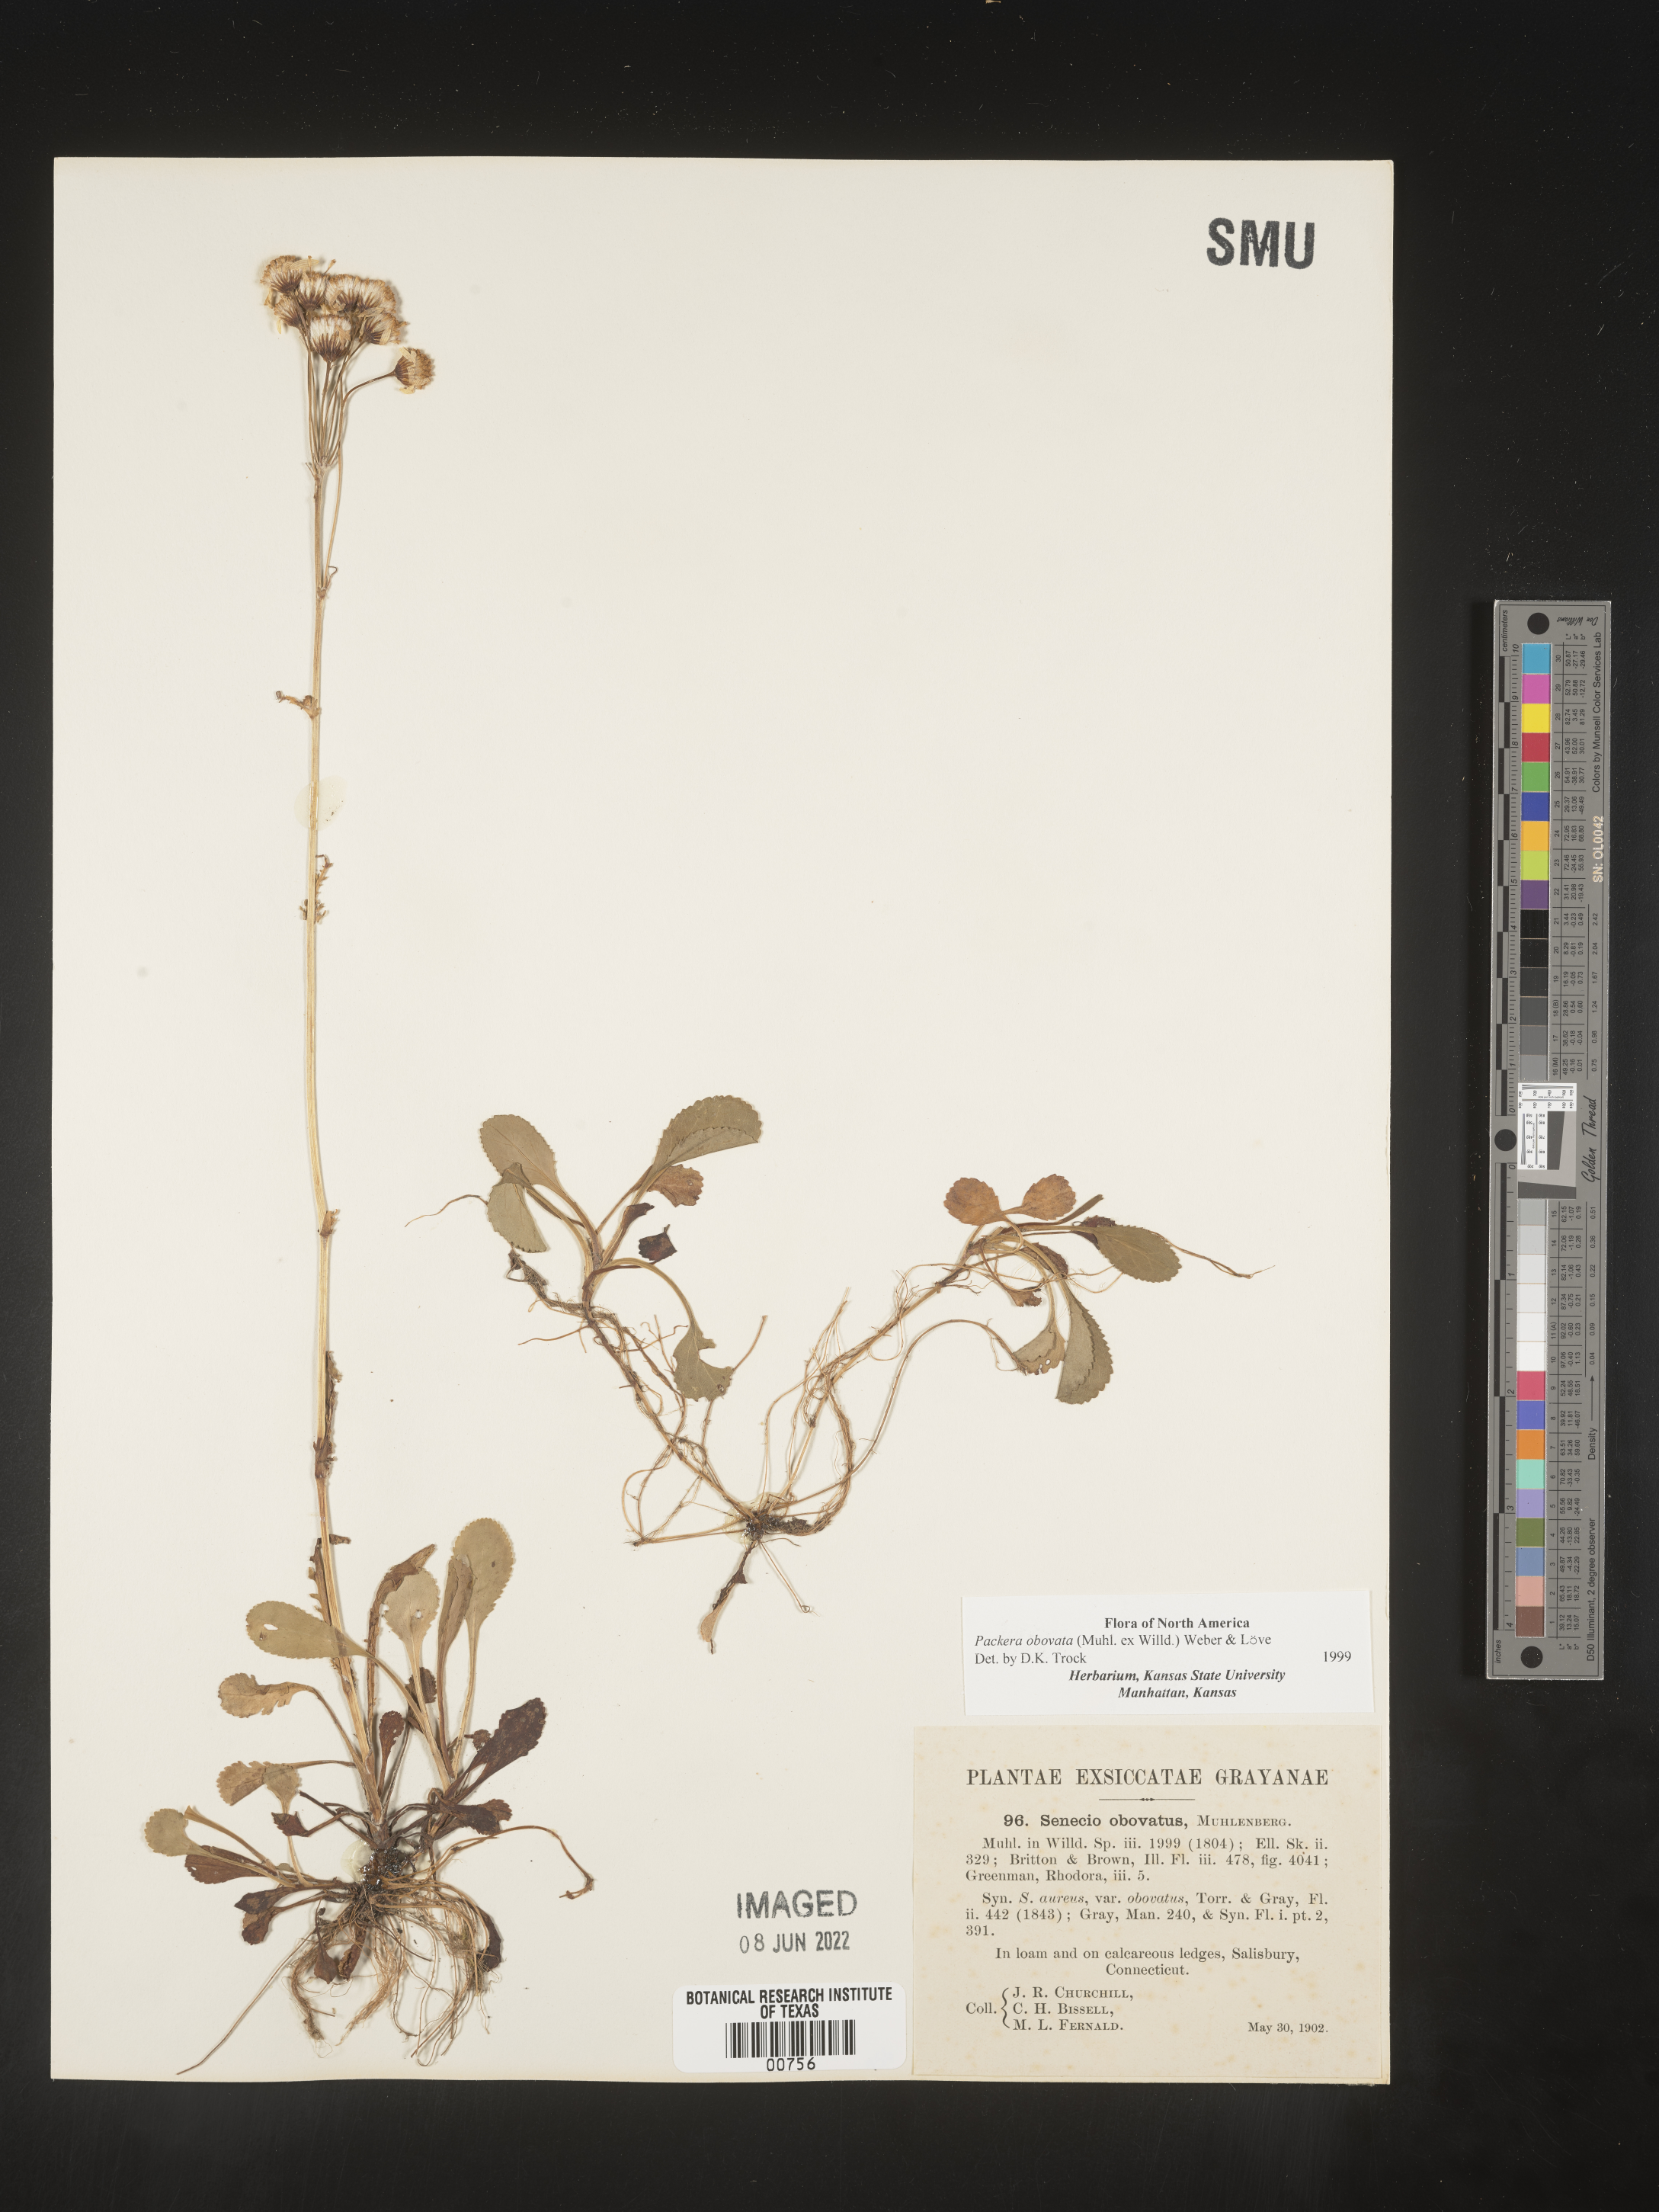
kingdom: Plantae
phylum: Tracheophyta
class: Magnoliopsida
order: Asterales
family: Asteraceae
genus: Packera
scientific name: Packera obovata
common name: Round-leaf ragwort
